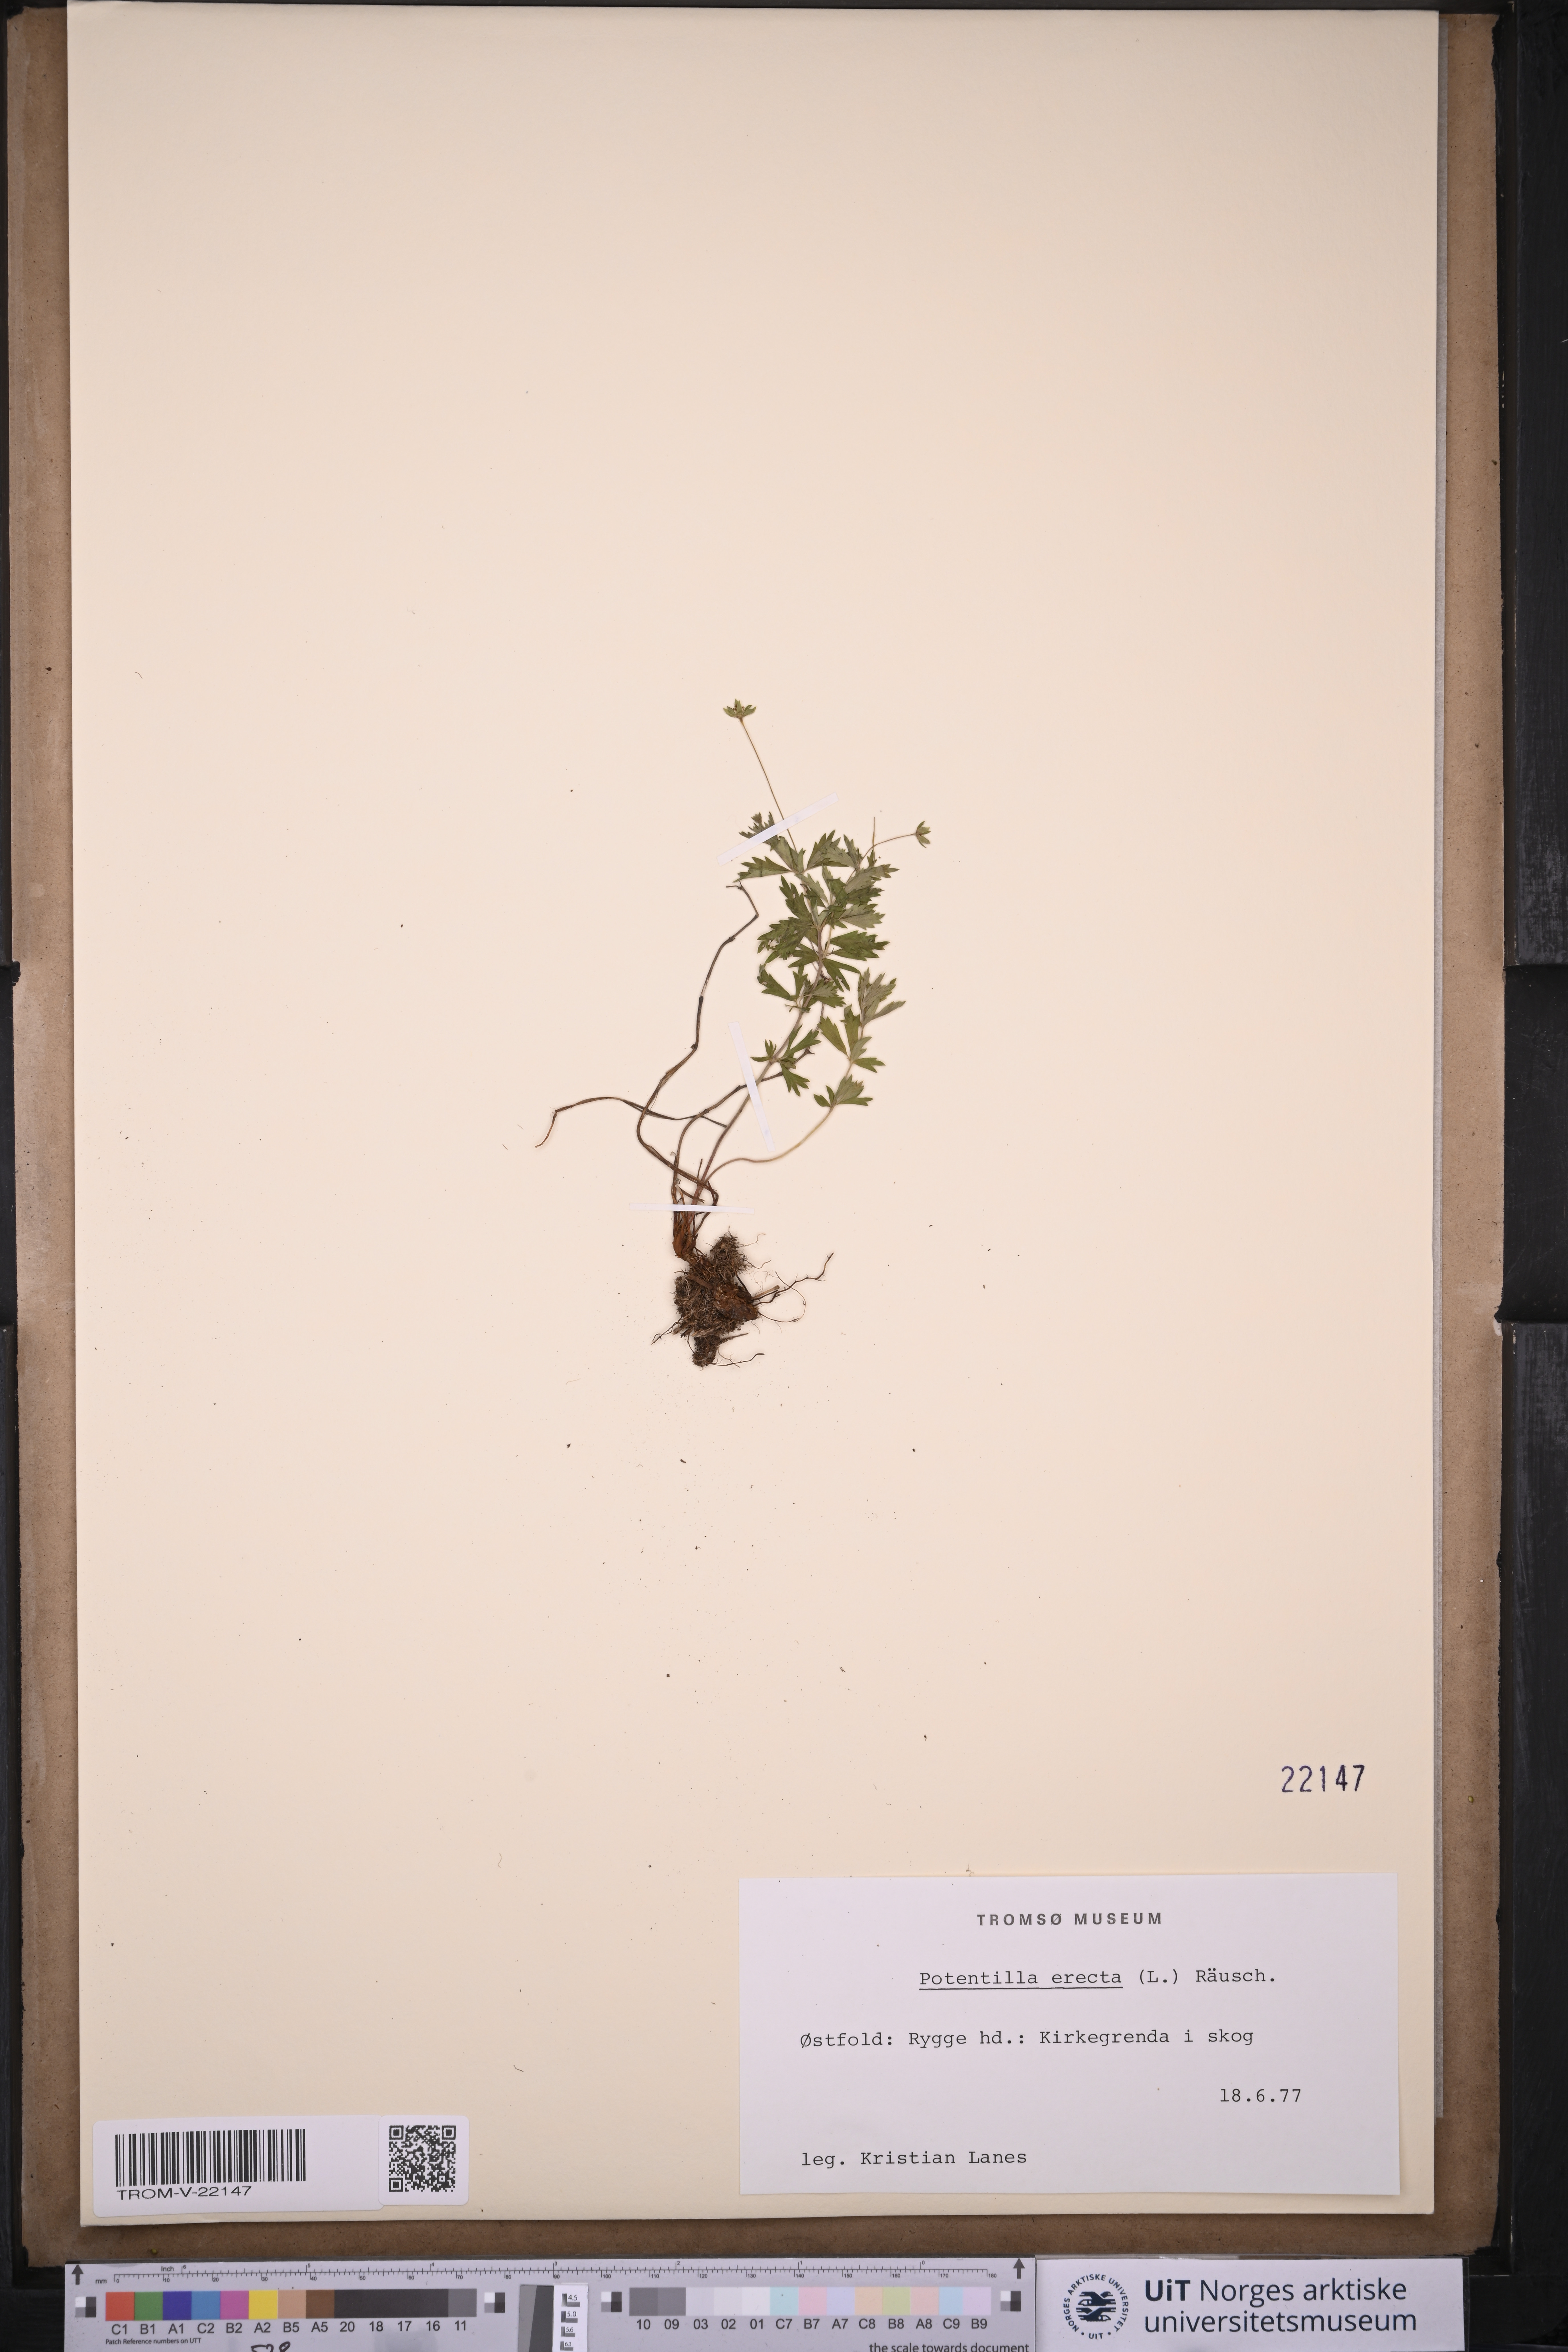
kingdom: Plantae
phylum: Tracheophyta
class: Magnoliopsida
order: Rosales
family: Rosaceae
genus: Potentilla
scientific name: Potentilla erecta
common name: Tormentil
